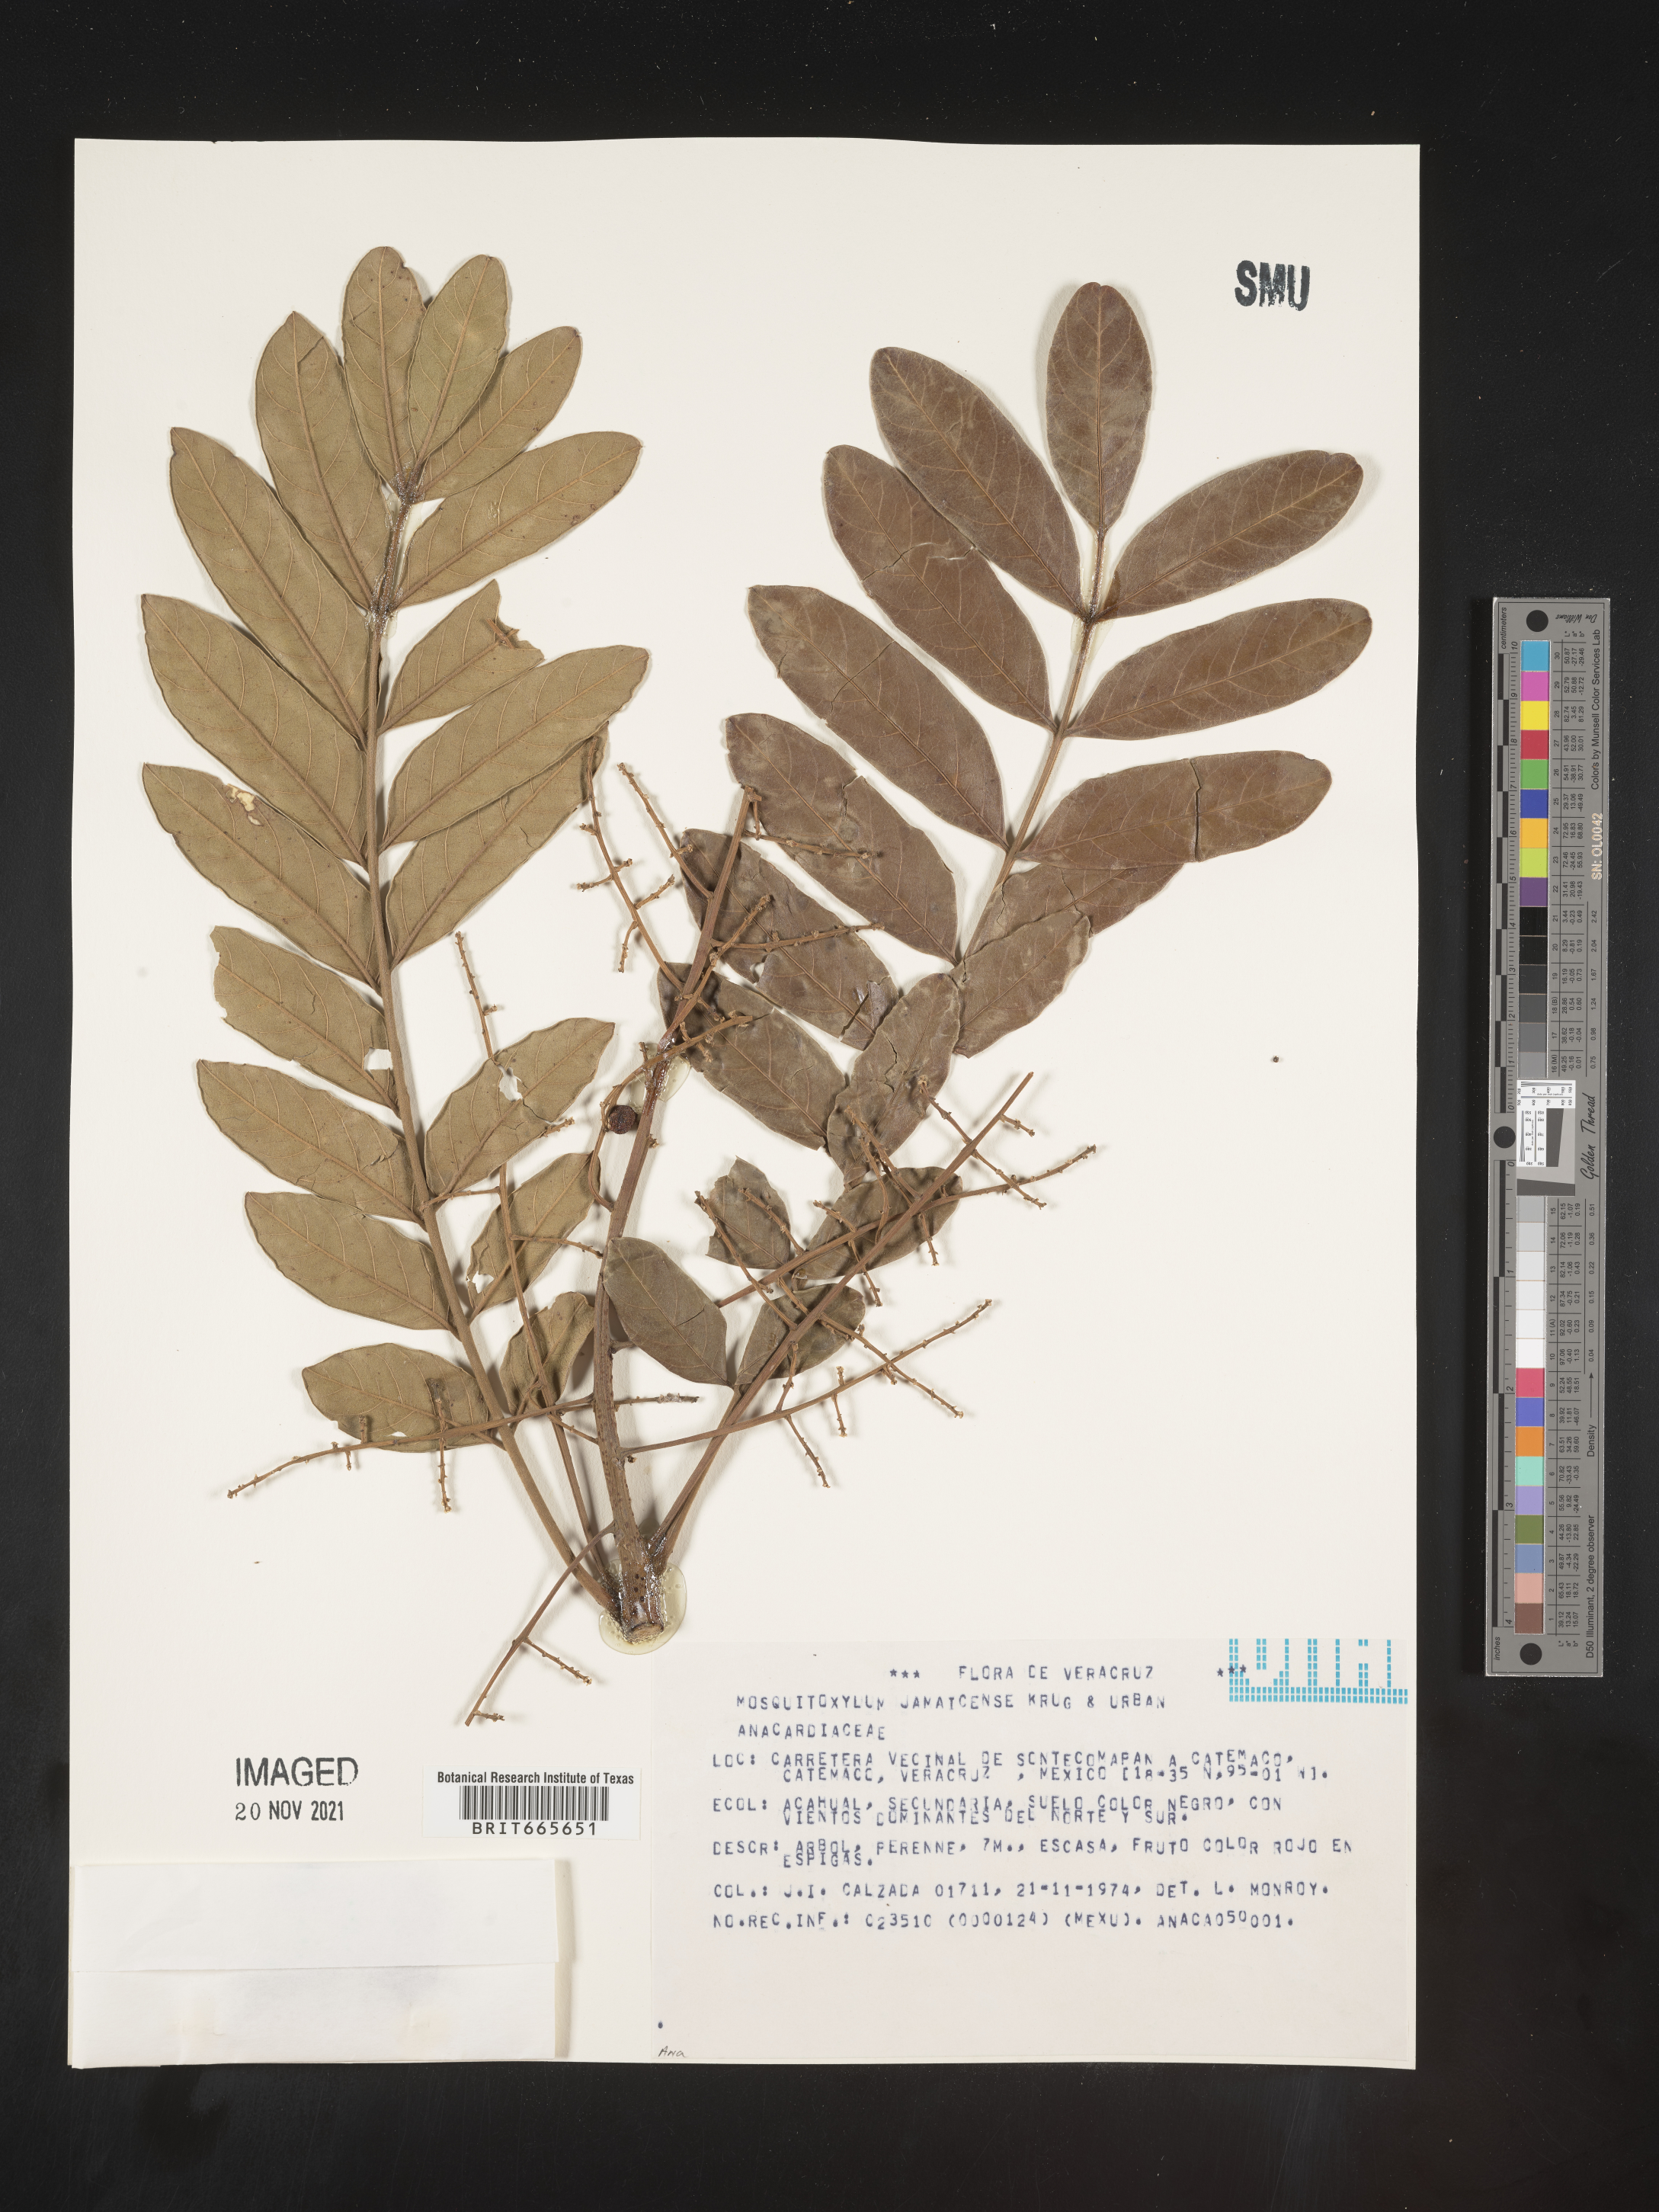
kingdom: Plantae
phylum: Tracheophyta
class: Magnoliopsida
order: Sapindales
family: Anacardiaceae
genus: Mosquitoxylum
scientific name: Mosquitoxylum
